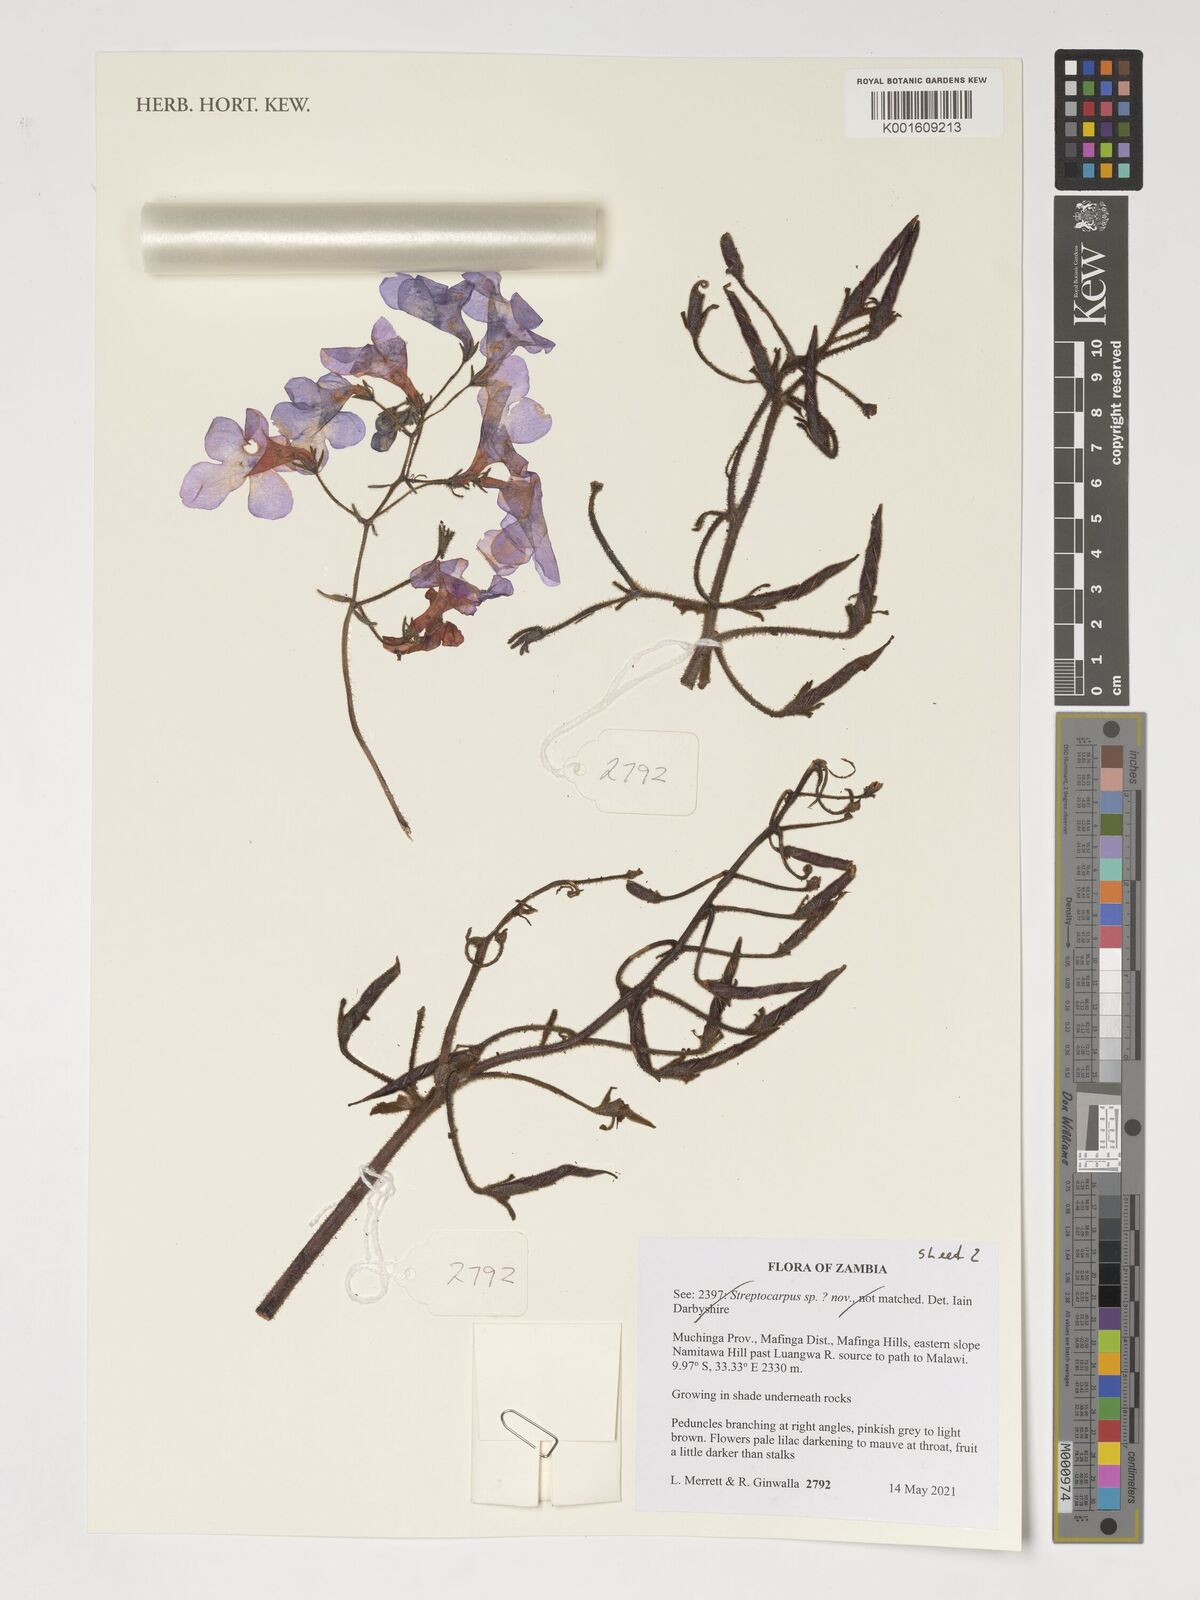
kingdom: Plantae
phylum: Tracheophyta
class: Magnoliopsida
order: Lamiales
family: Gesneriaceae
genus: Streptocarpus
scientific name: Streptocarpus eylesii
